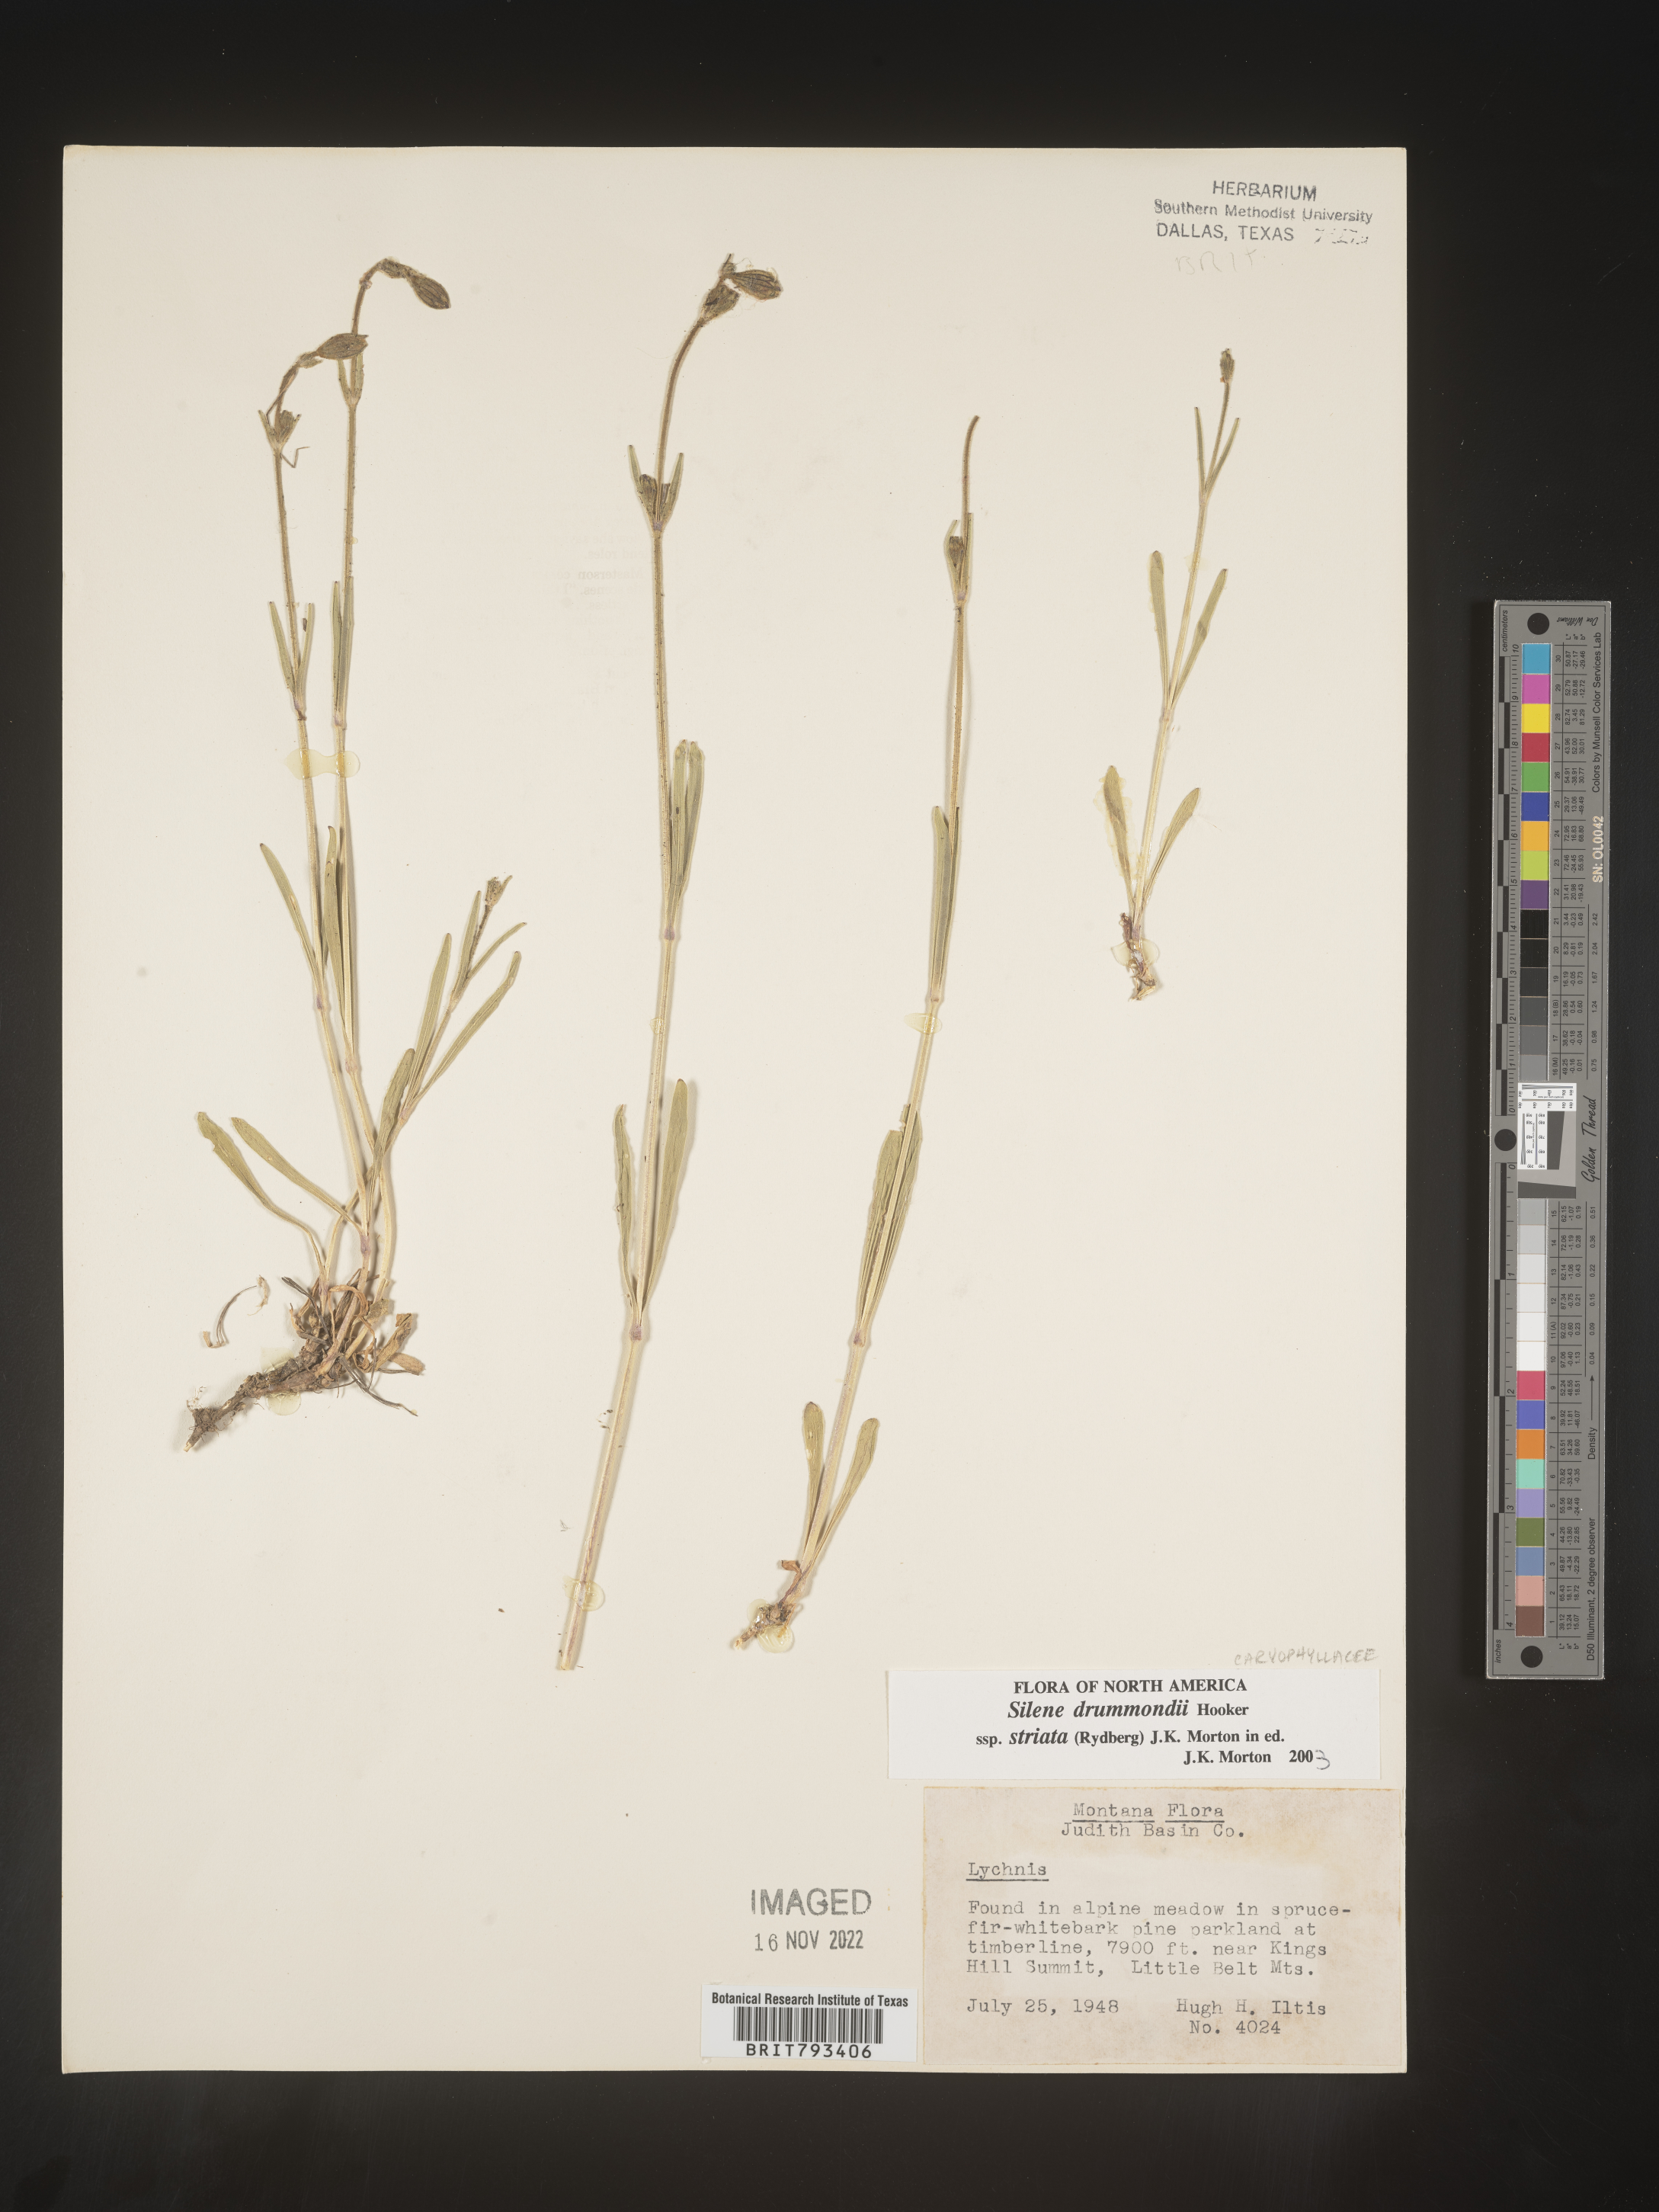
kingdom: Plantae
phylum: Tracheophyta
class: Magnoliopsida
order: Caryophyllales
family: Caryophyllaceae
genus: Silene
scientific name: Silene drummondii
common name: Drummond's catchfly
